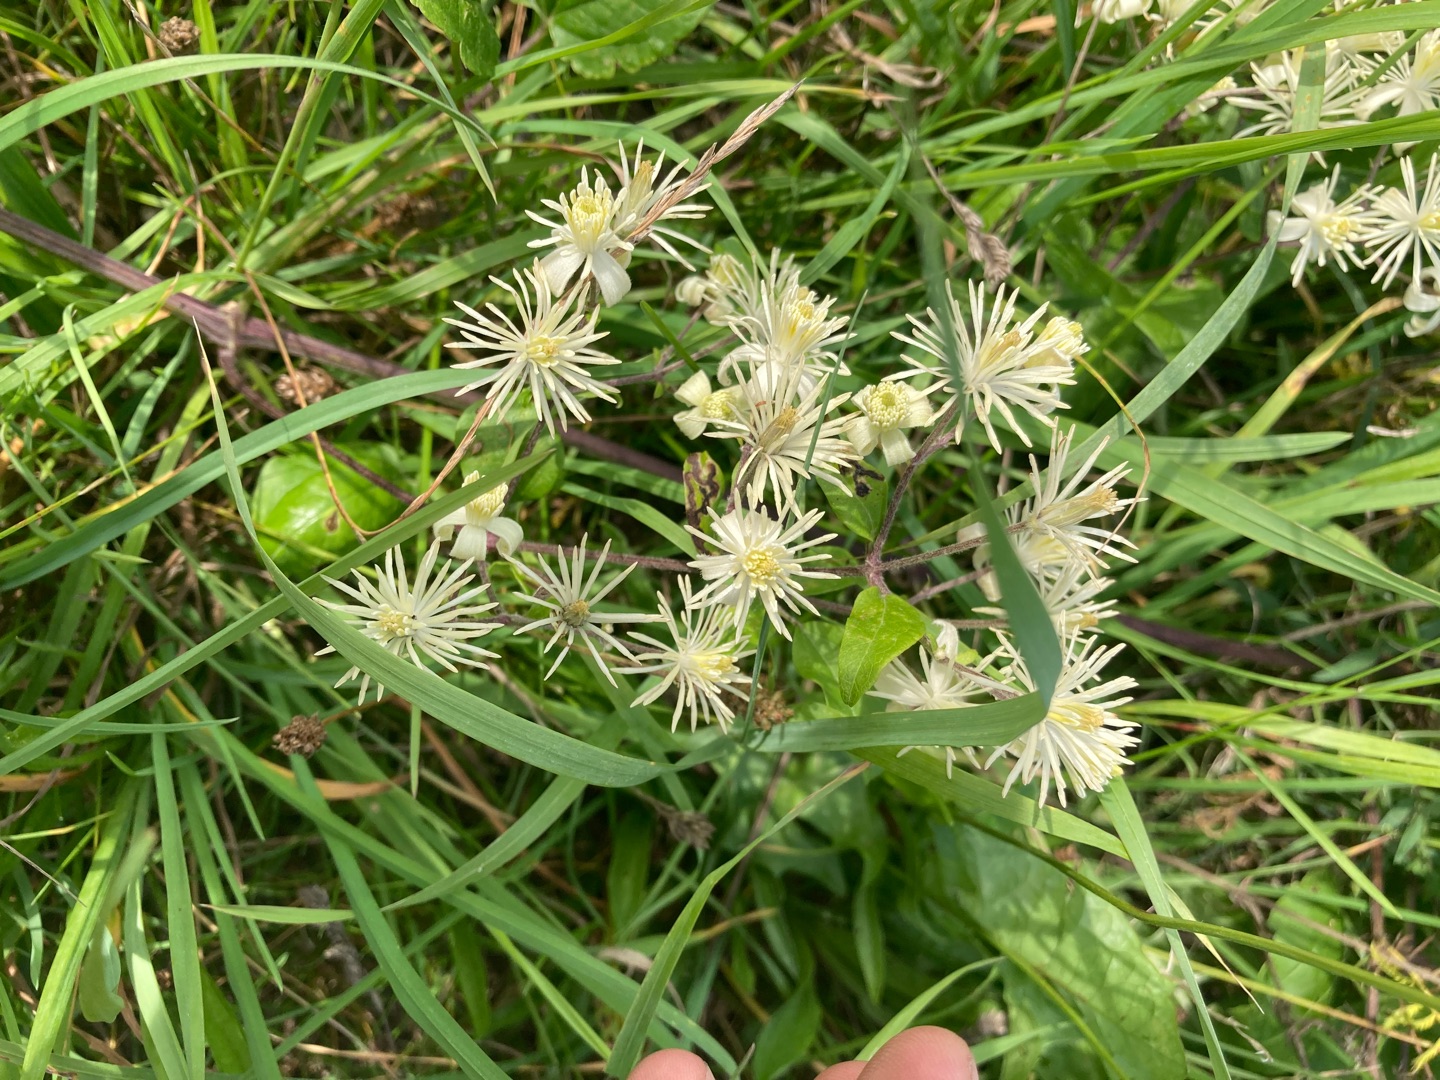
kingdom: Plantae
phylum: Tracheophyta
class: Magnoliopsida
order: Ranunculales
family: Ranunculaceae
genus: Clematis
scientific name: Clematis vitalba
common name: Skovranke
